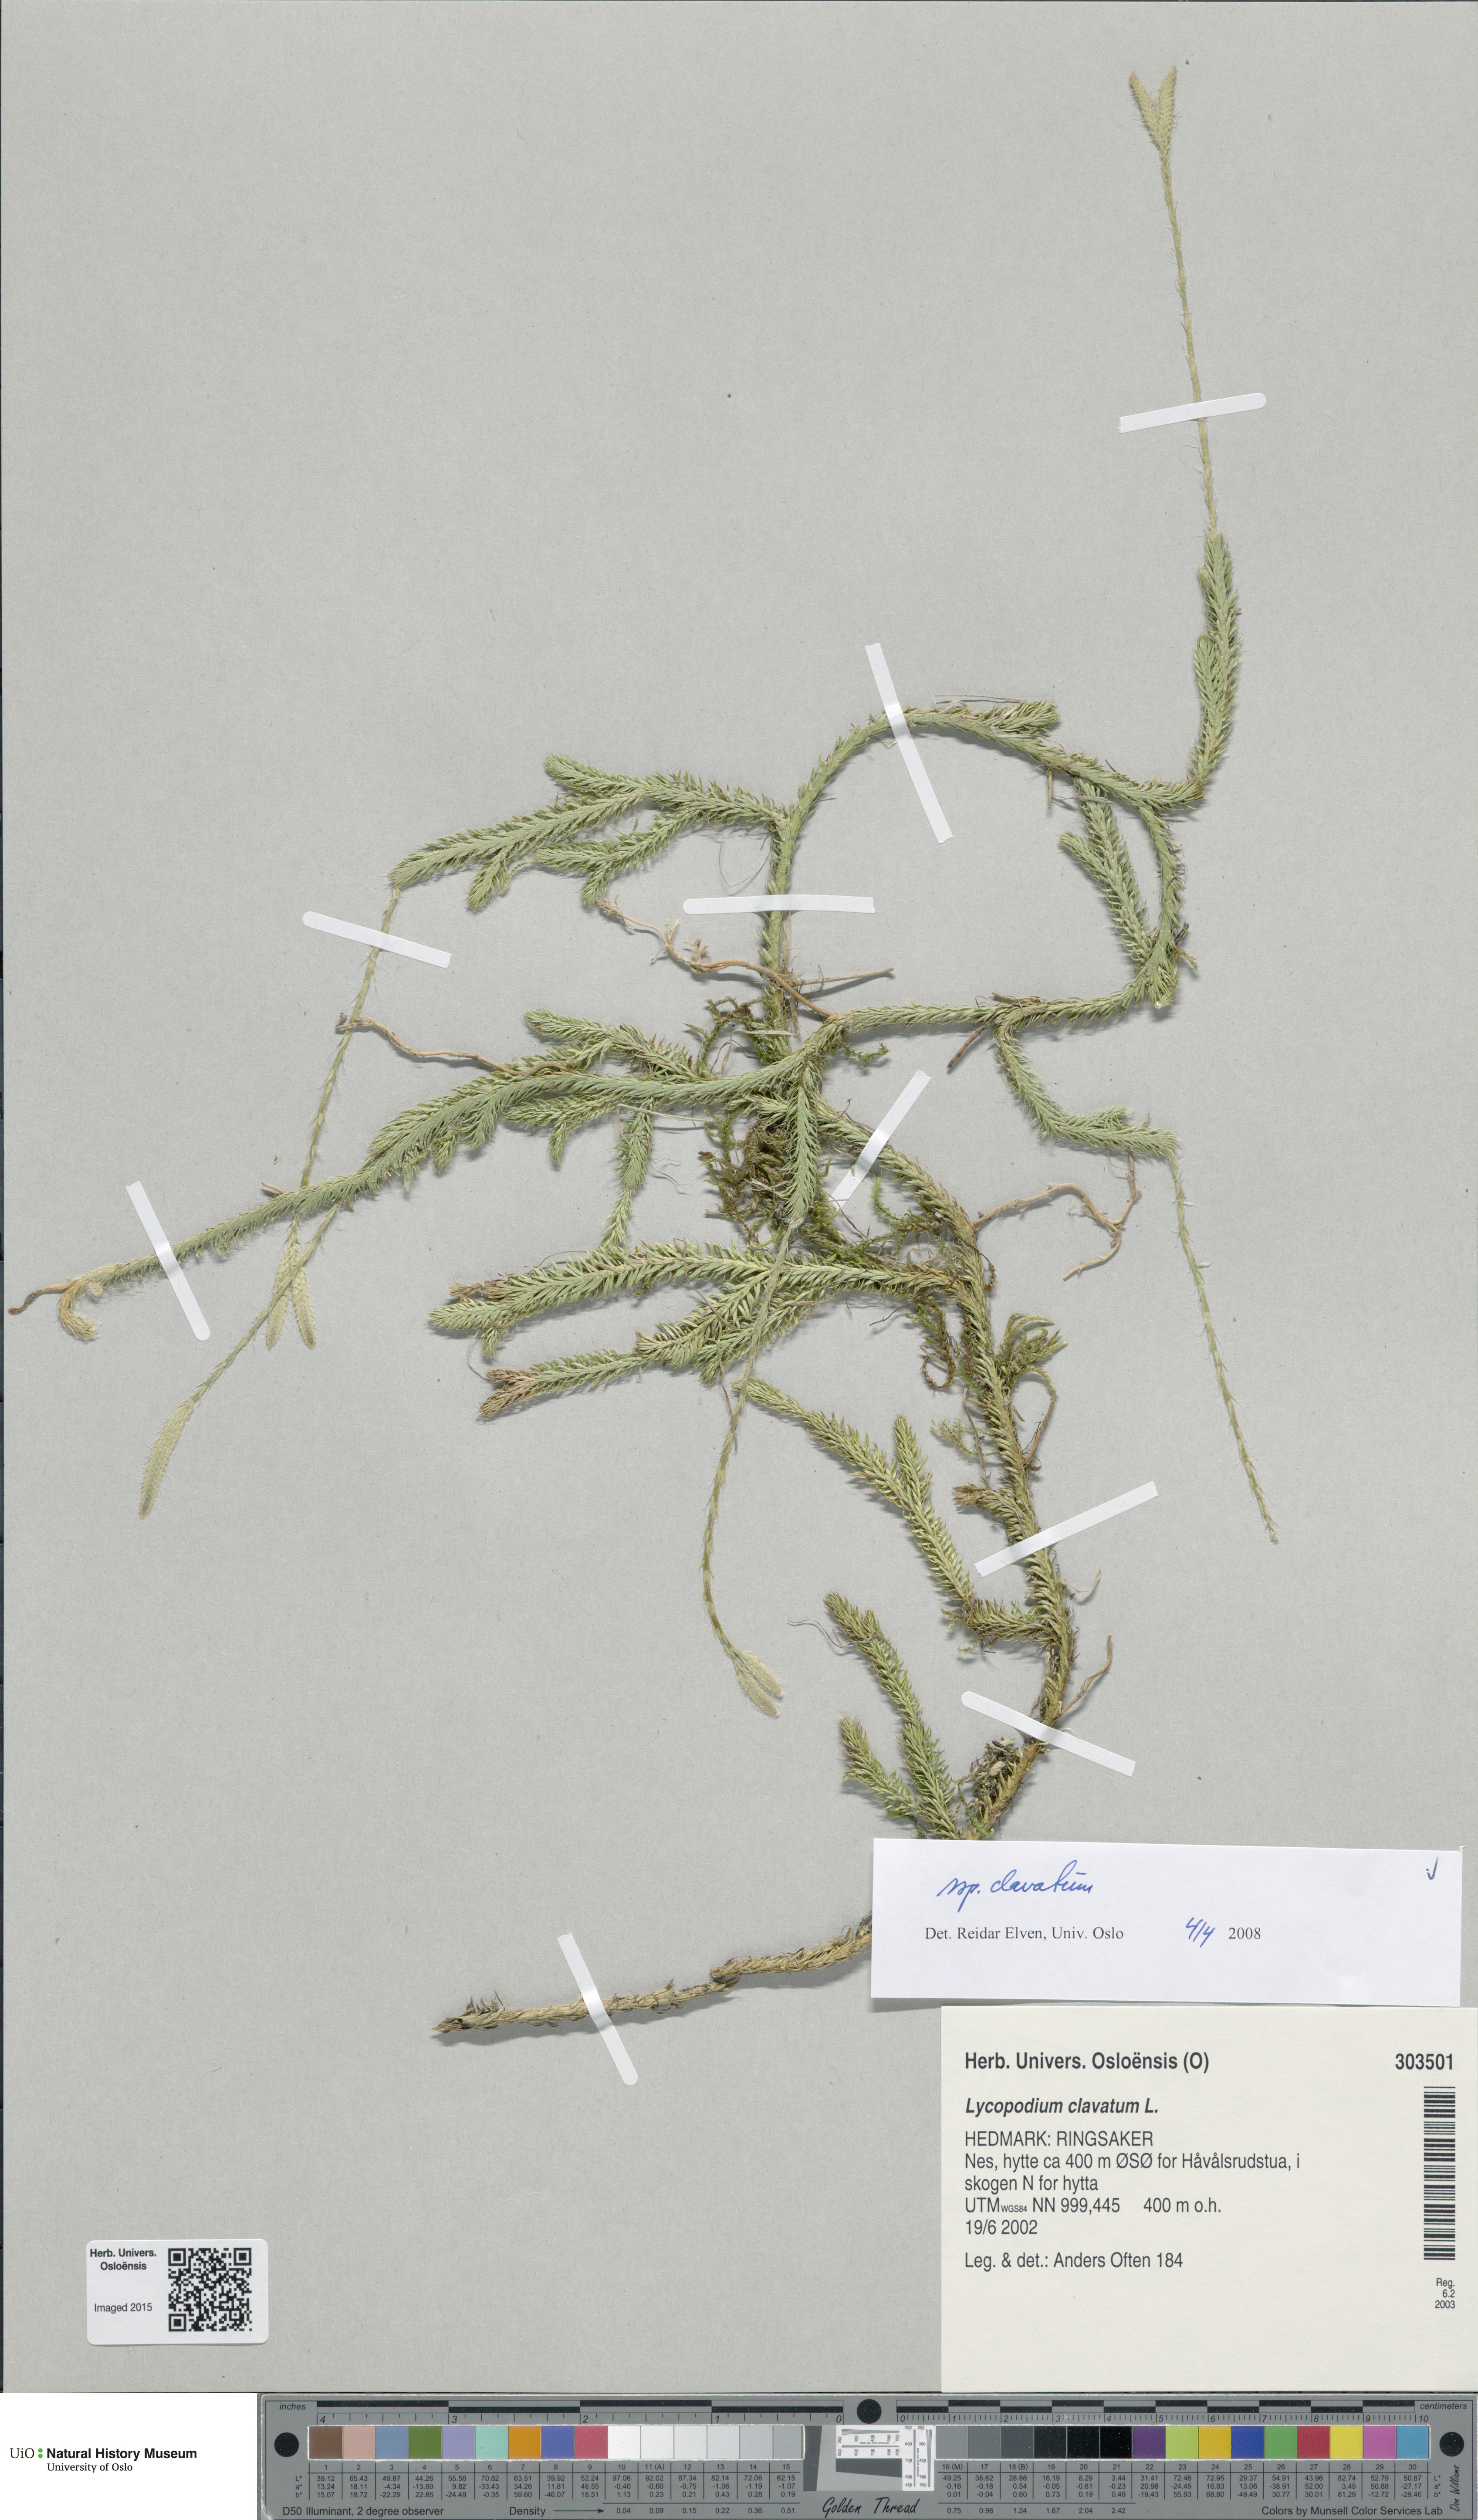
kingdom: Plantae
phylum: Tracheophyta
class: Lycopodiopsida
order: Lycopodiales
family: Lycopodiaceae
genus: Lycopodium
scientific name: Lycopodium clavatum
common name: Stag's-horn clubmoss
